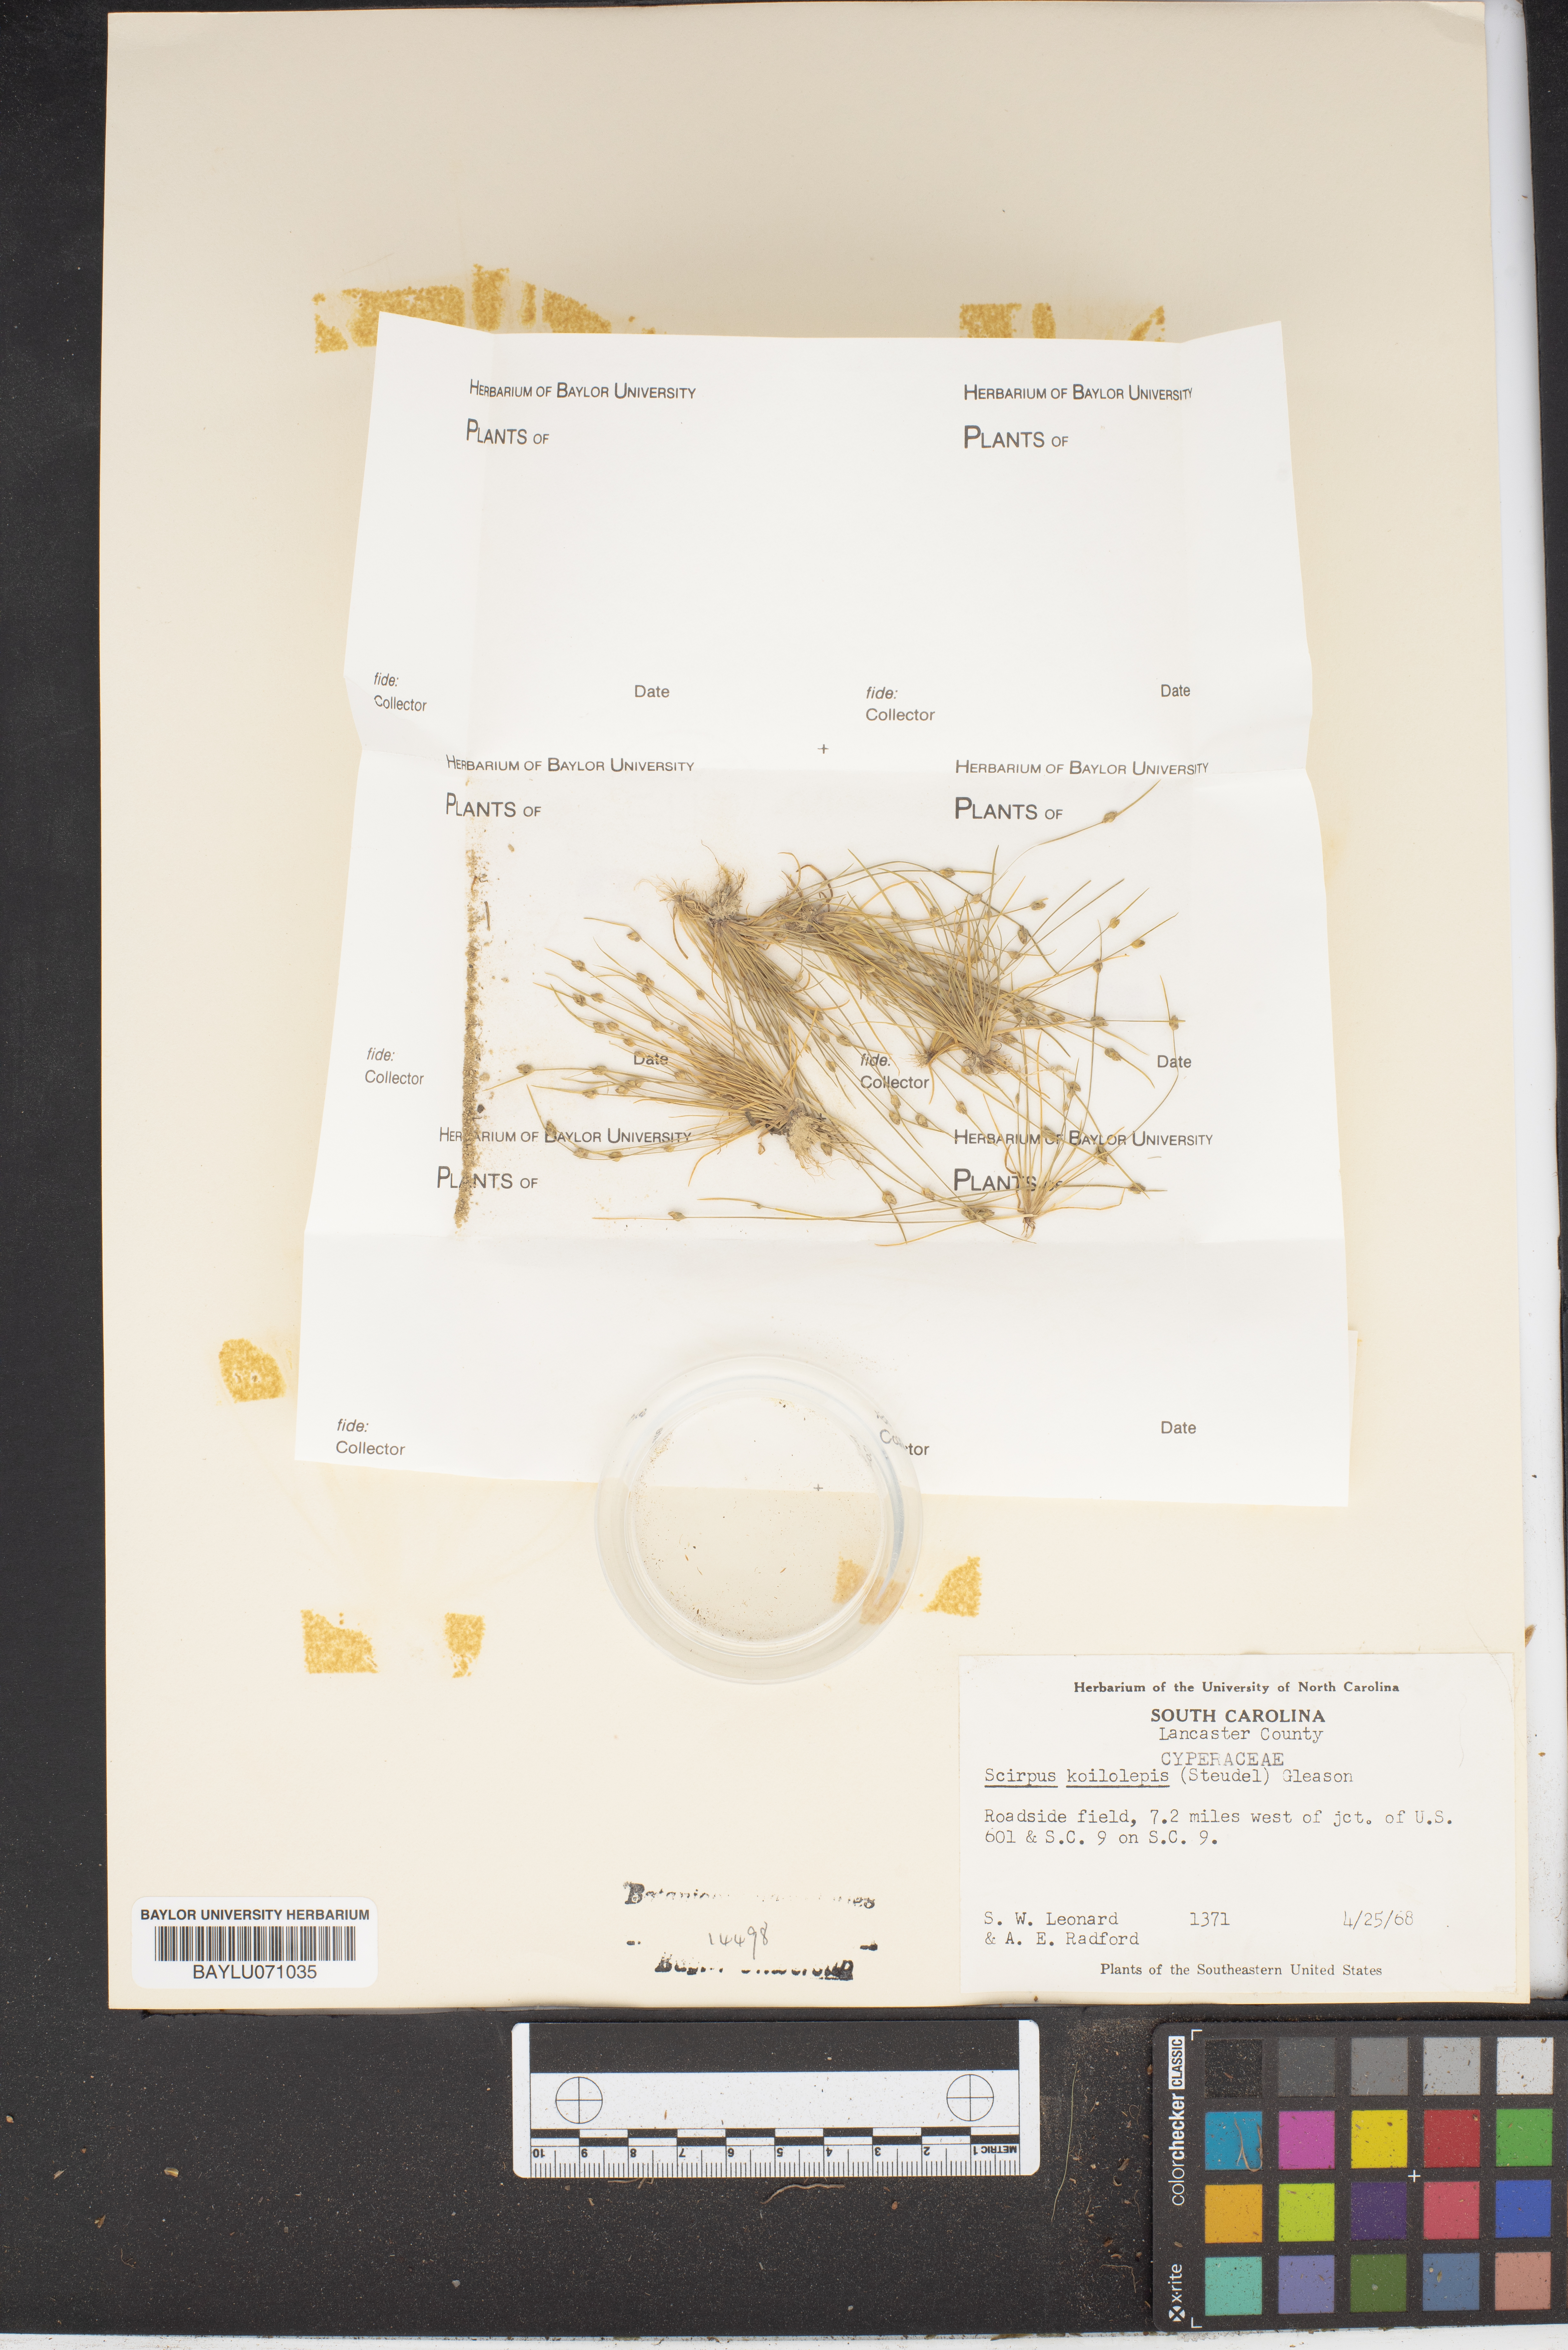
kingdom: Plantae
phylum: Tracheophyta
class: Liliopsida
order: Poales
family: Cyperaceae
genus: Isolepis
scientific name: Isolepis carinata
